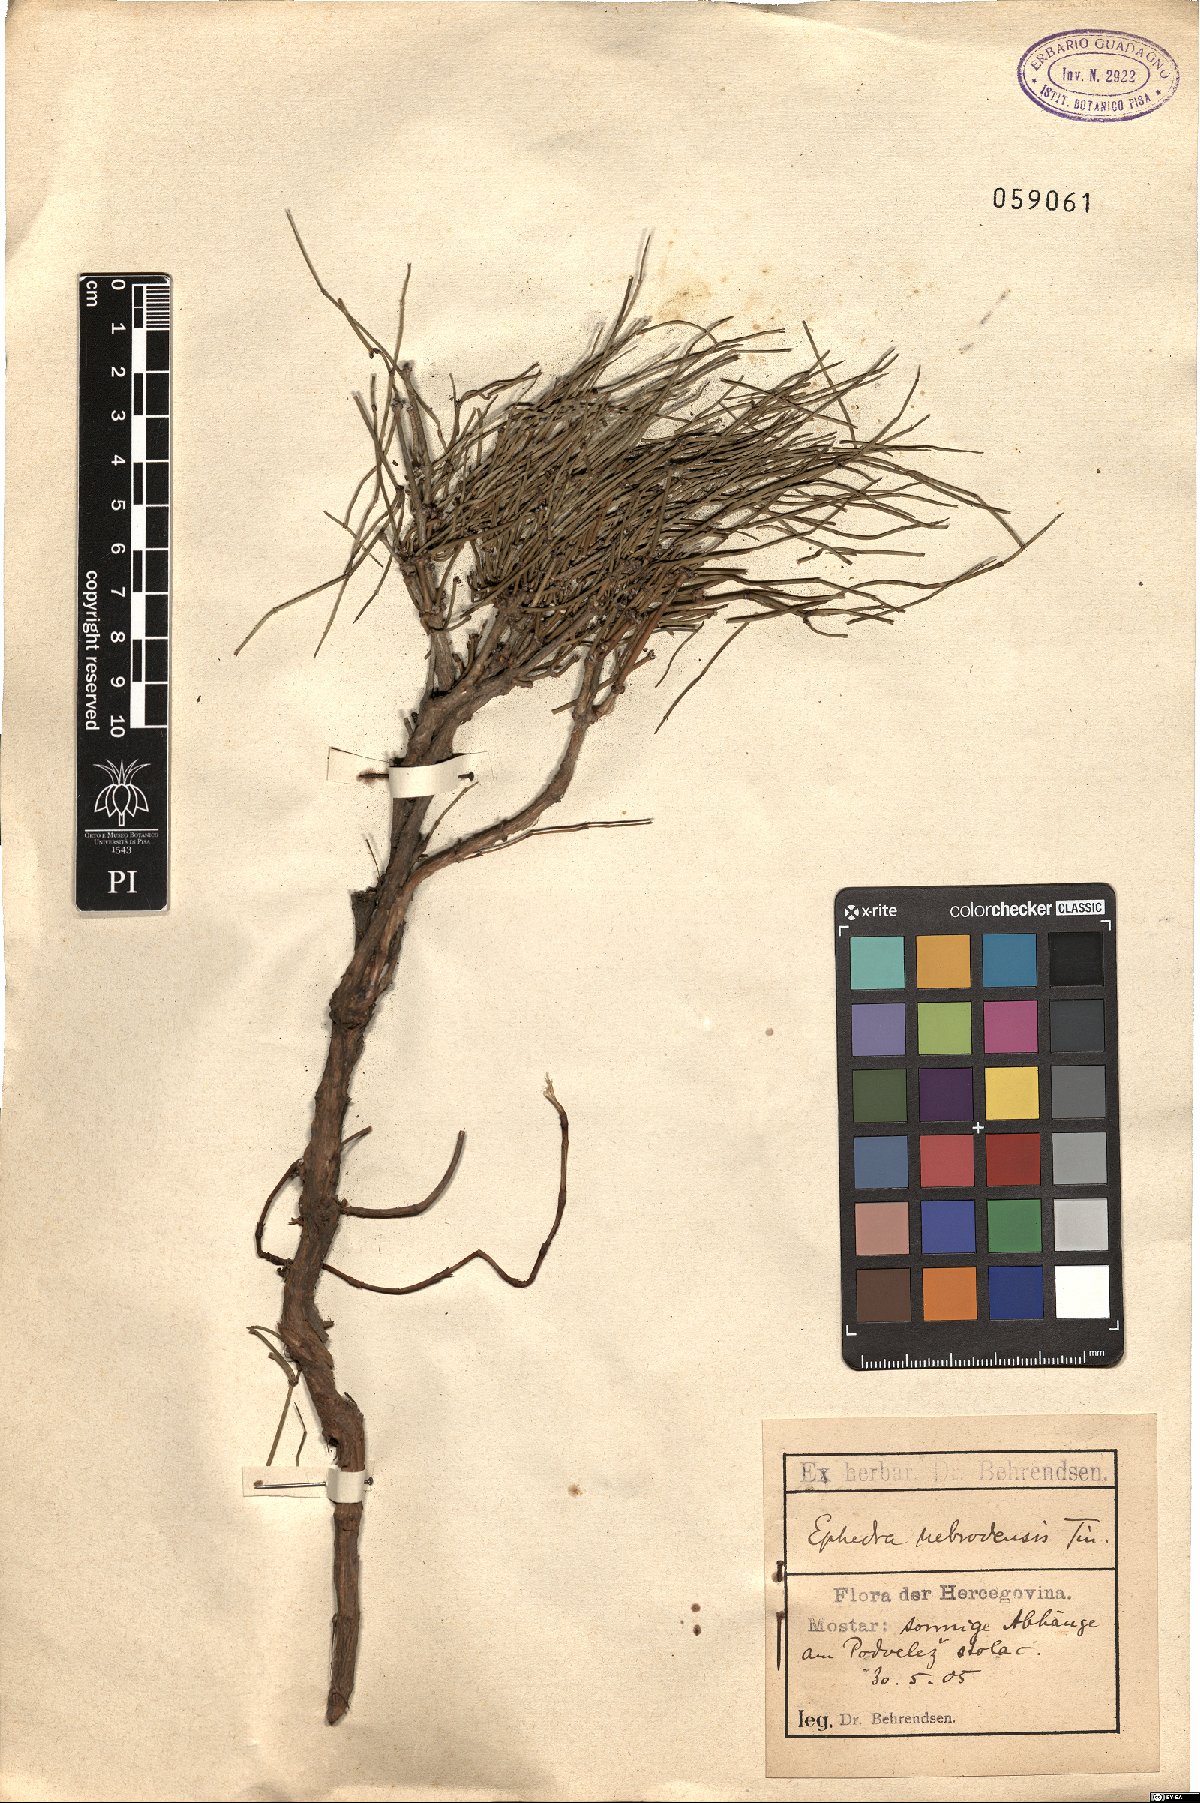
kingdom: Plantae
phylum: Tracheophyta
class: Gnetopsida
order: Ephedrales
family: Ephedraceae
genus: Ephedra
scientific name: Ephedra foeminea
